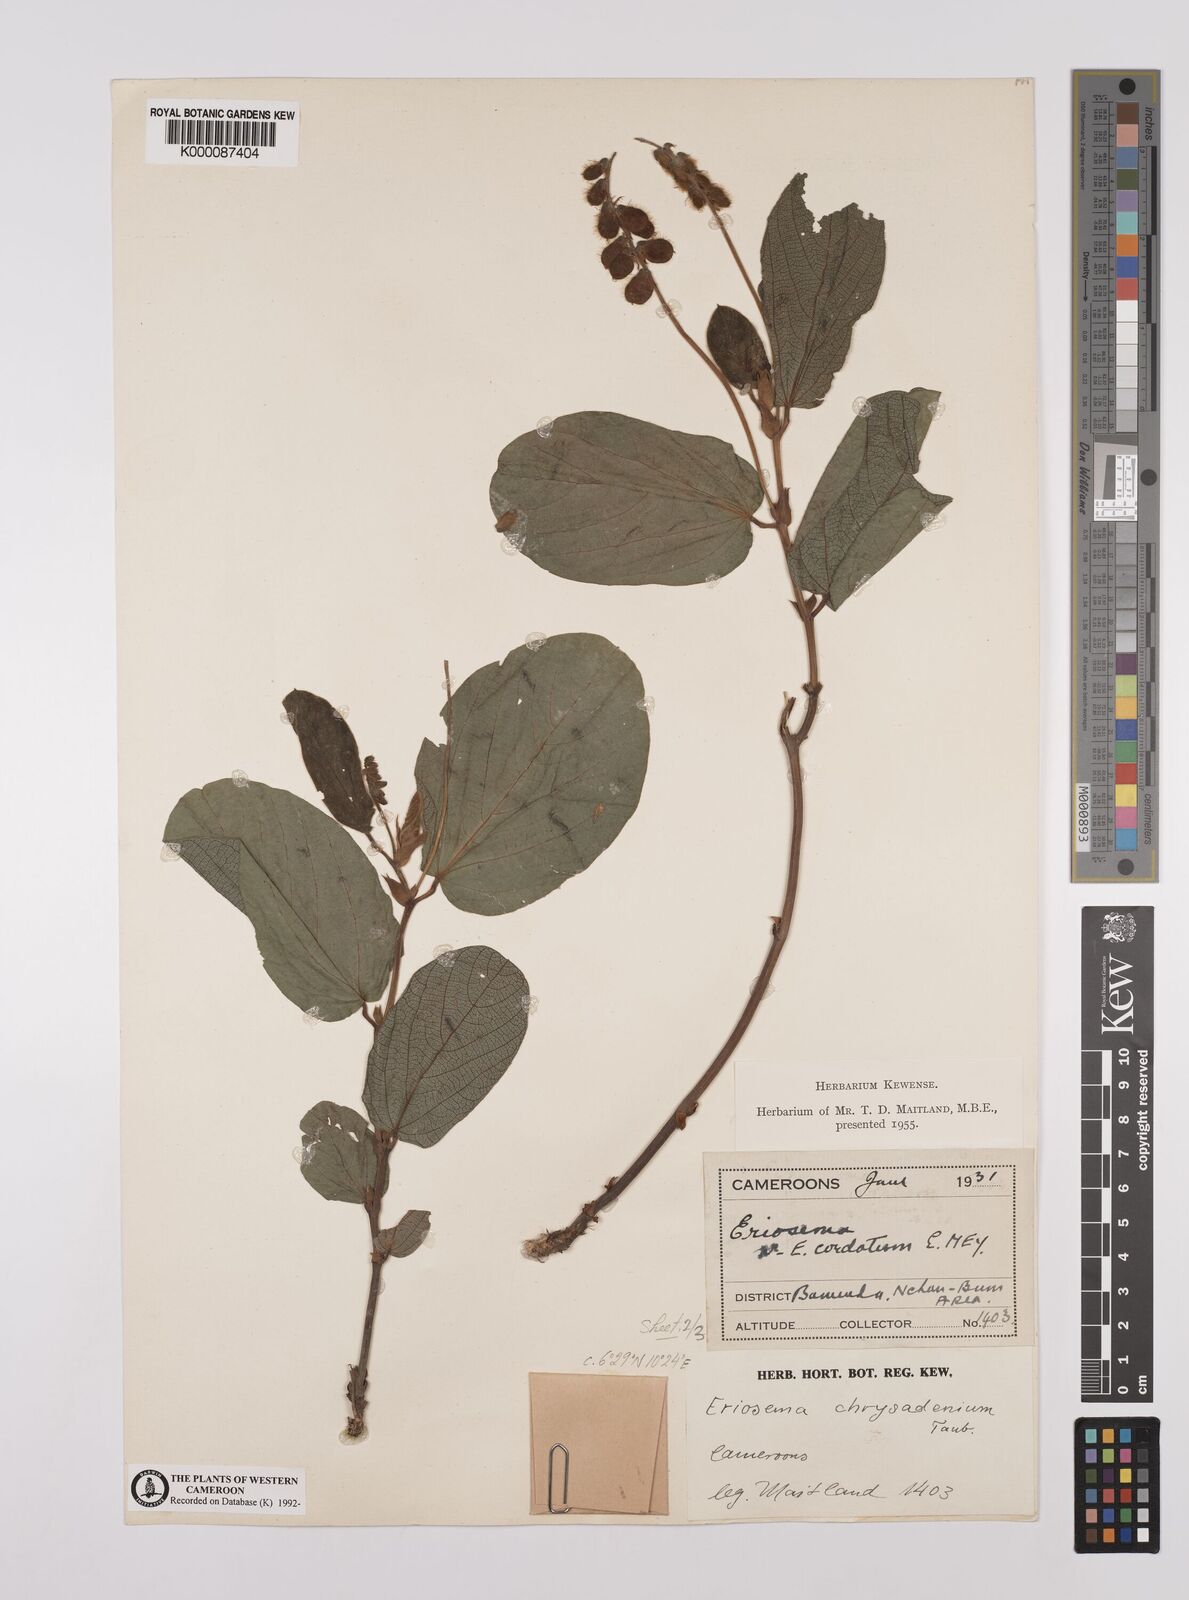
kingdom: Plantae
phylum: Tracheophyta
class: Magnoliopsida
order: Fabales
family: Fabaceae
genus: Eriosema
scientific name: Eriosema chrysadenium
